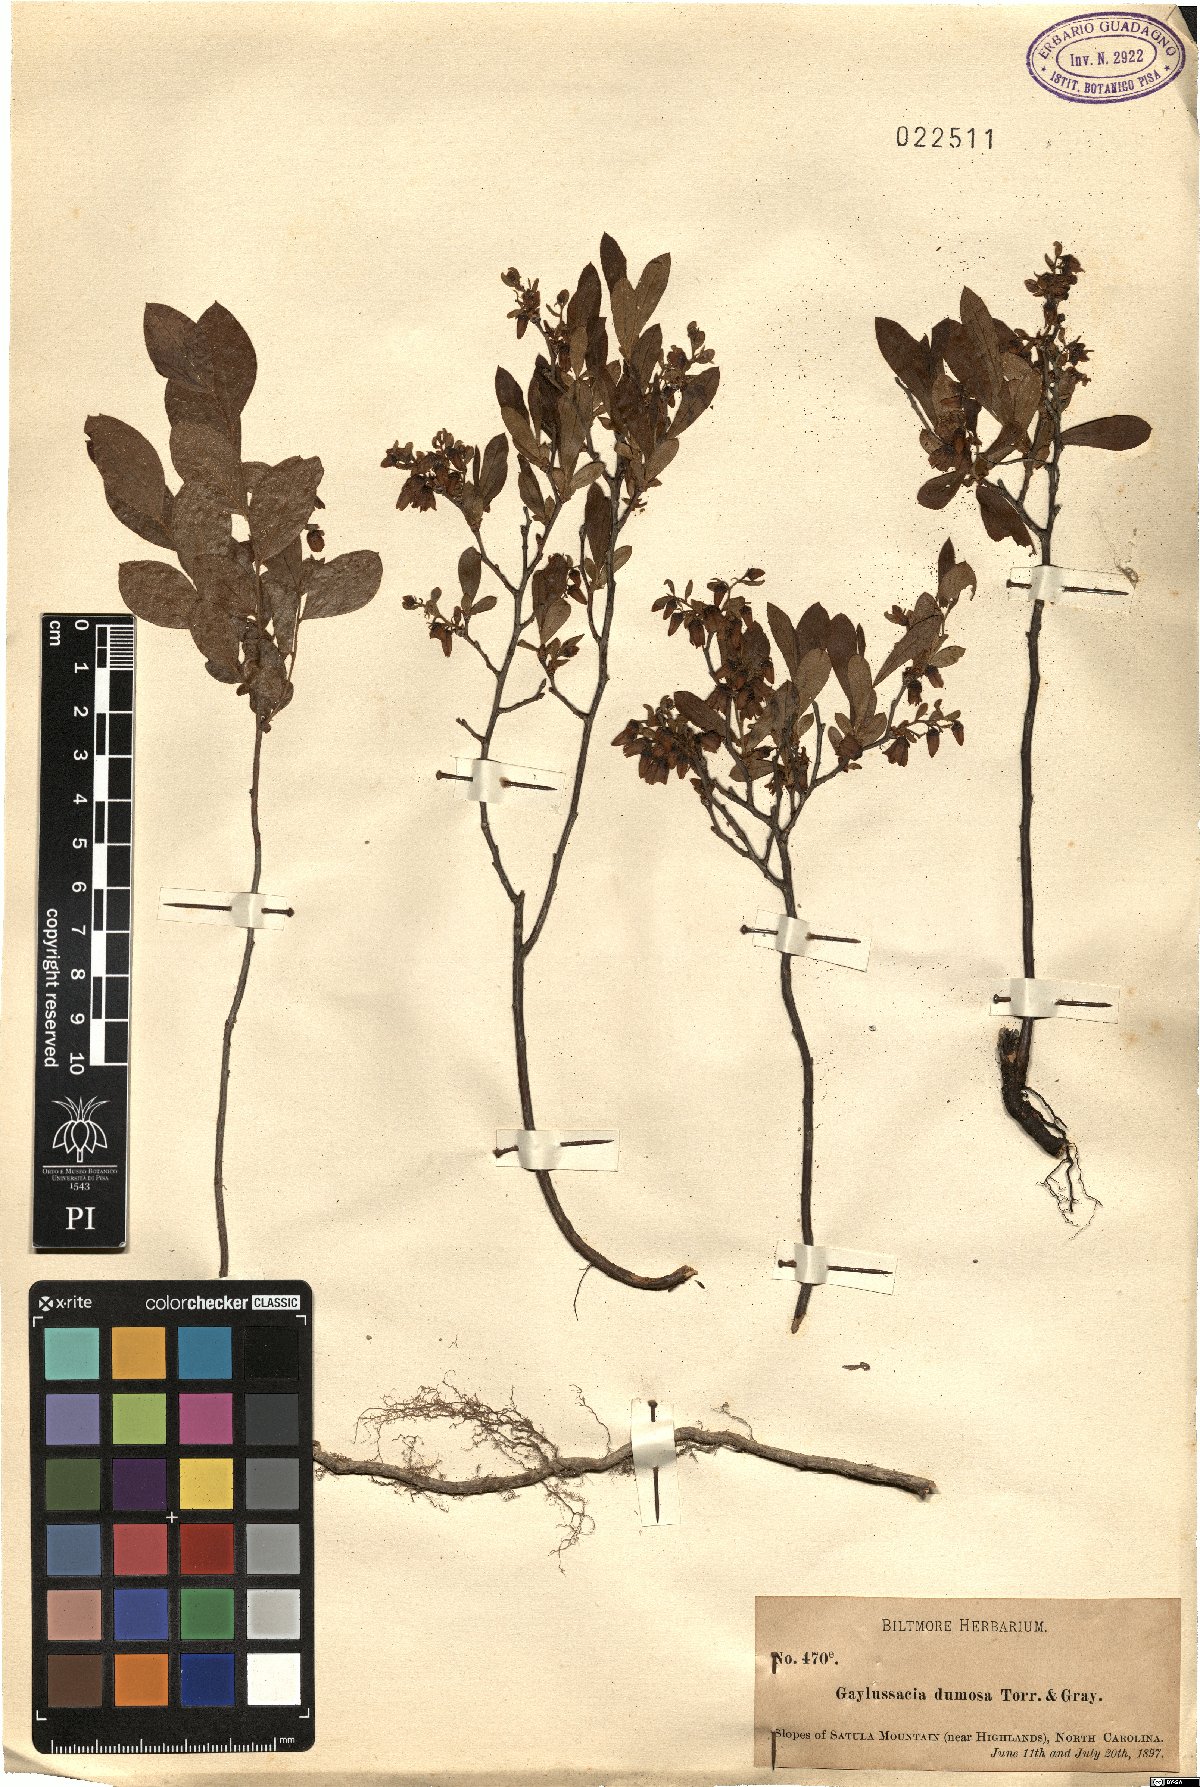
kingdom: Plantae
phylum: Tracheophyta
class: Magnoliopsida
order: Ericales
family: Ericaceae
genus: Gaylussacia
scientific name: Gaylussacia dumosa
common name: Dwarf huckleberry
